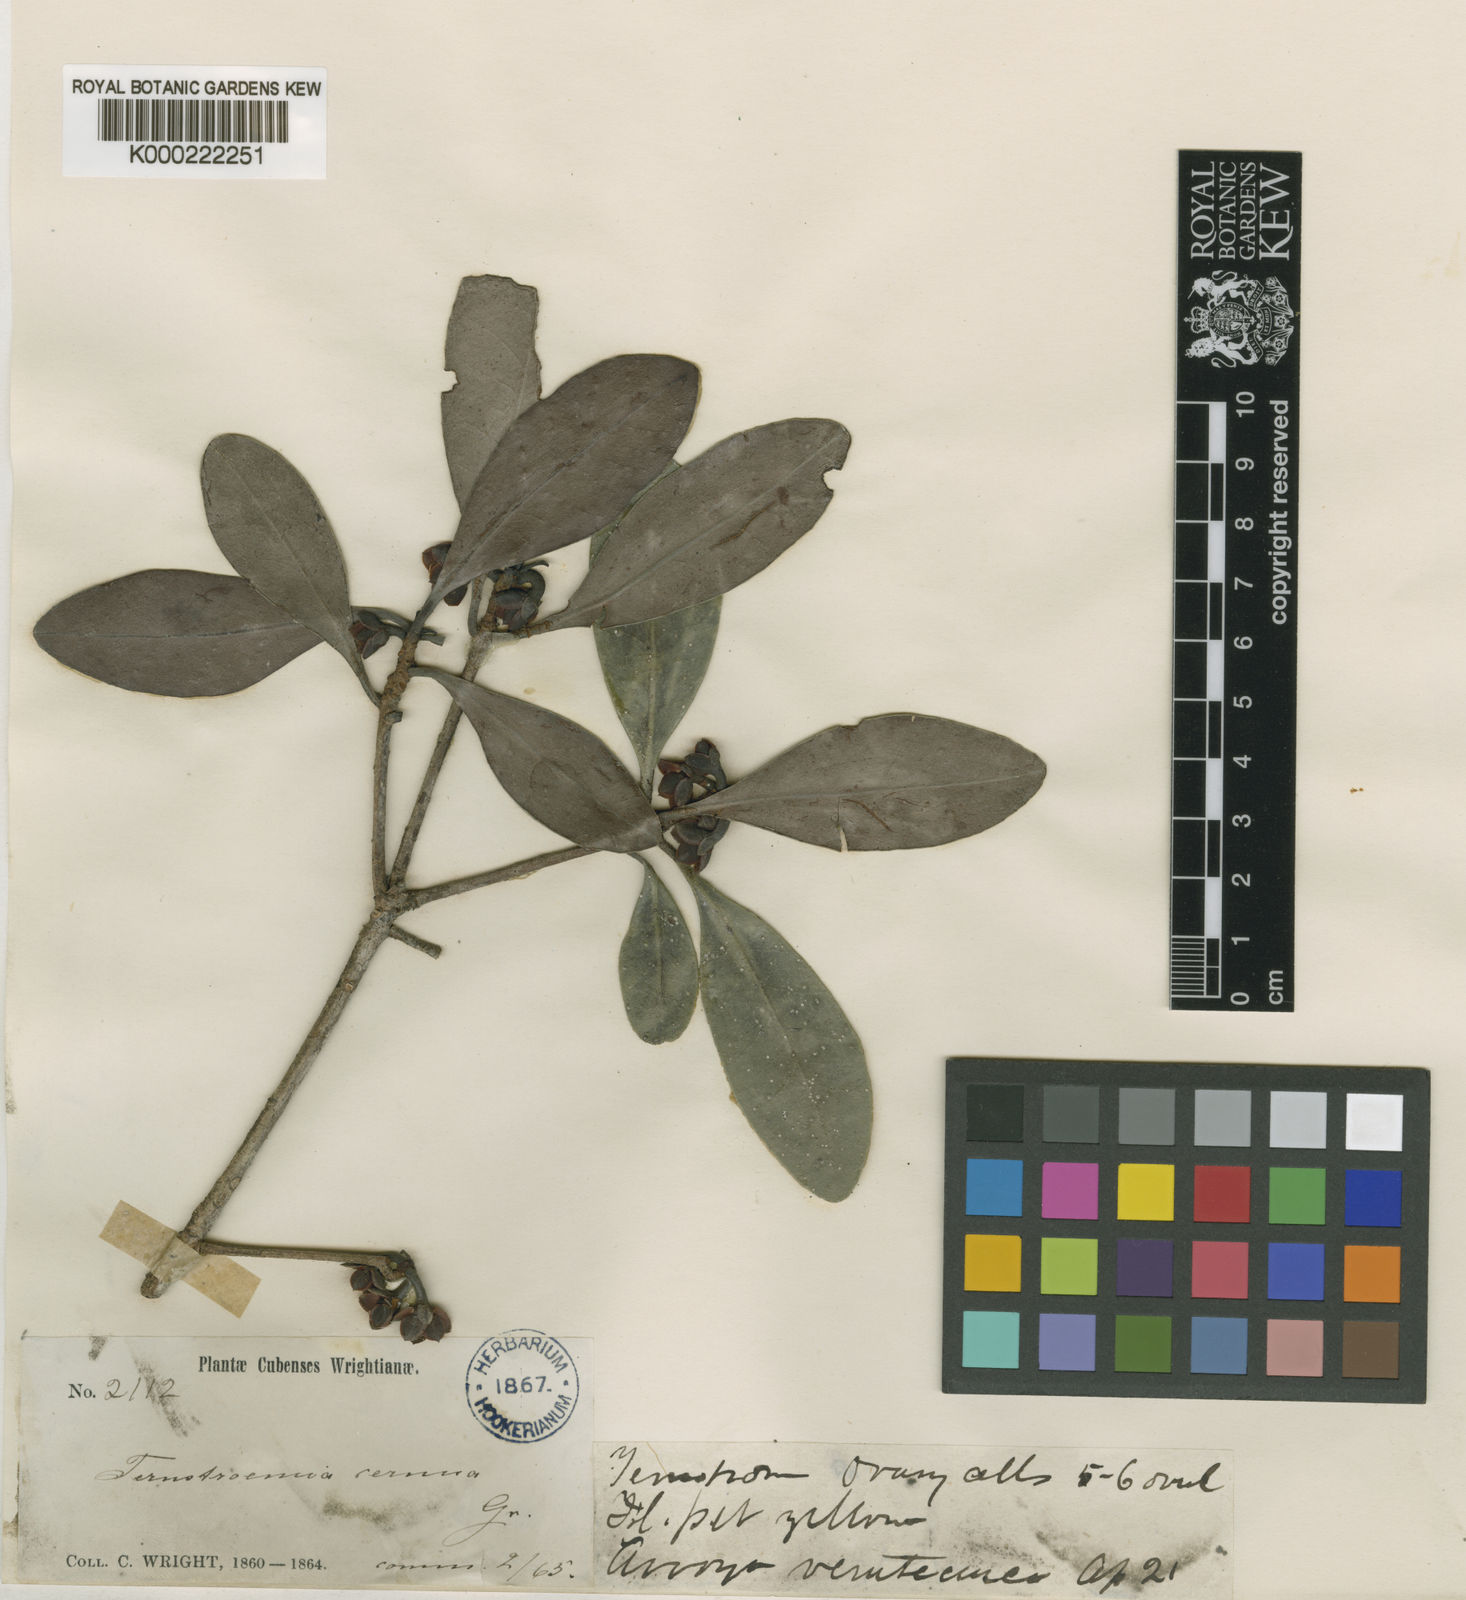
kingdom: Plantae
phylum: Tracheophyta
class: Magnoliopsida
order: Ericales
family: Pentaphylacaceae
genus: Ternstroemia
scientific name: Ternstroemia cernua
